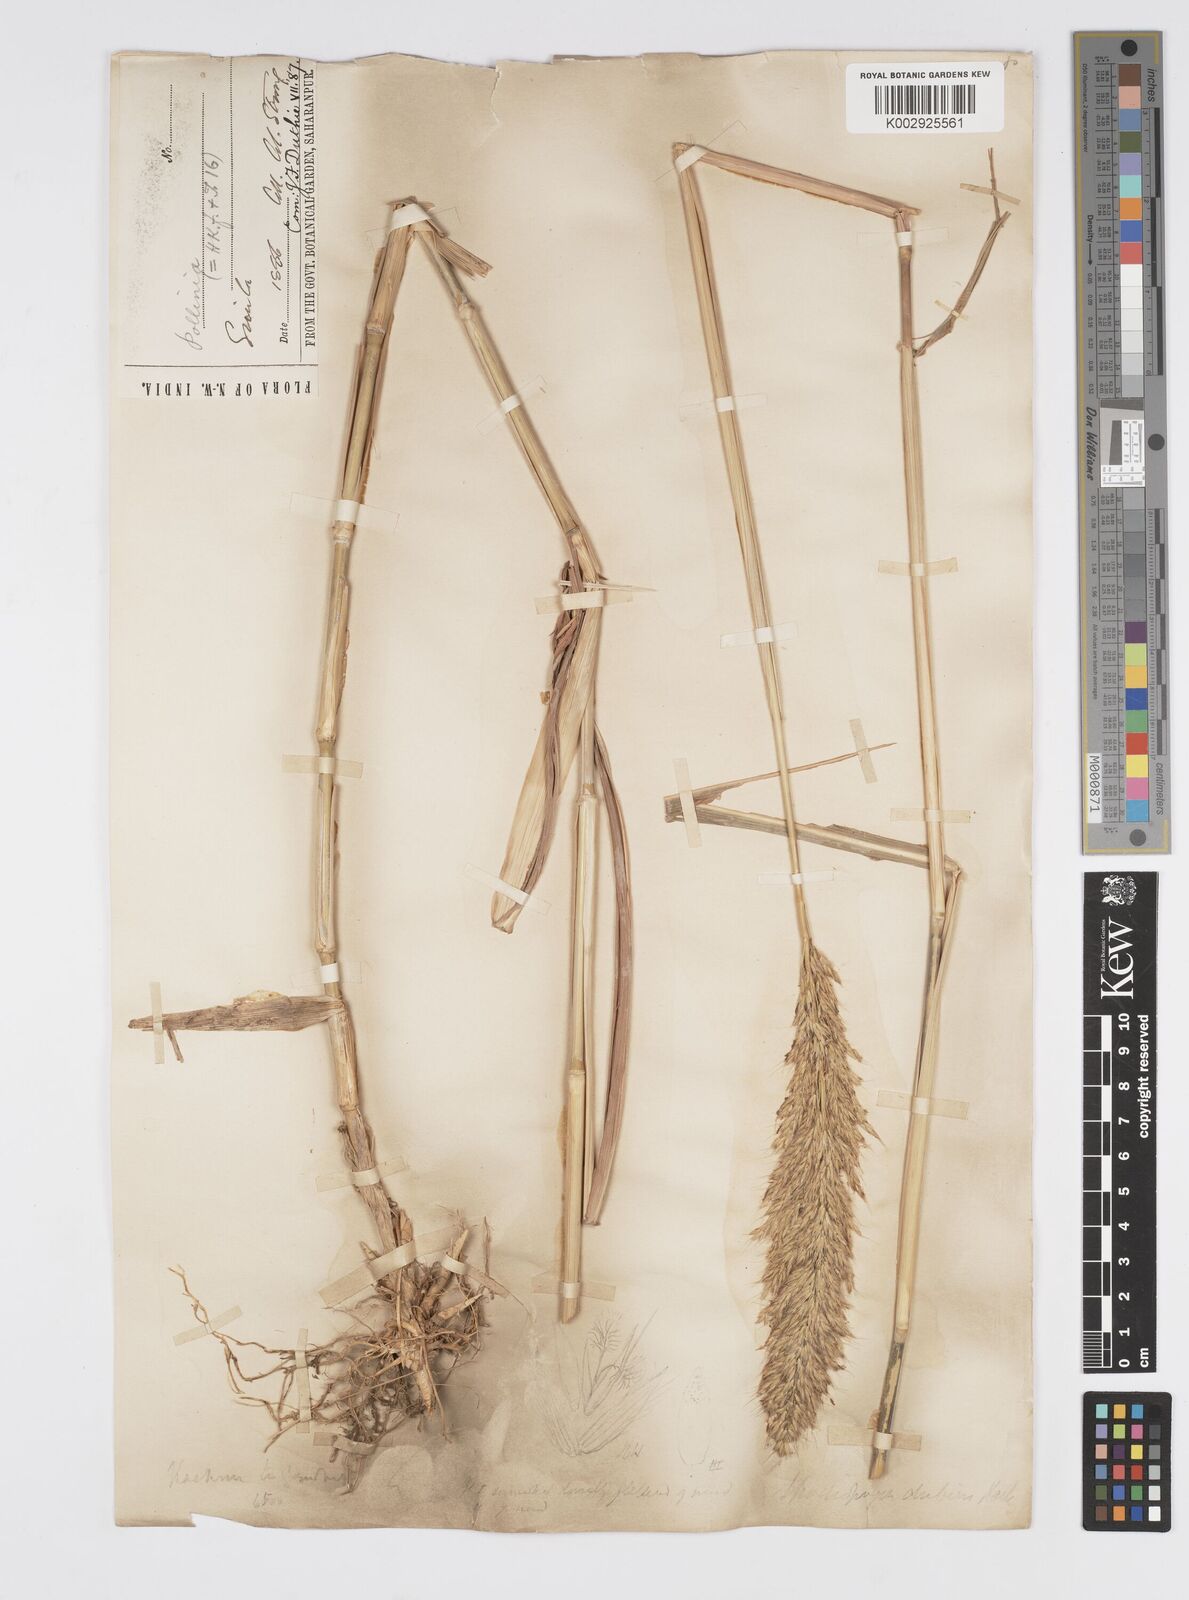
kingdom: Plantae
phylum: Tracheophyta
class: Liliopsida
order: Poales
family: Poaceae
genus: Spodiopogon
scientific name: Spodiopogon dubius
